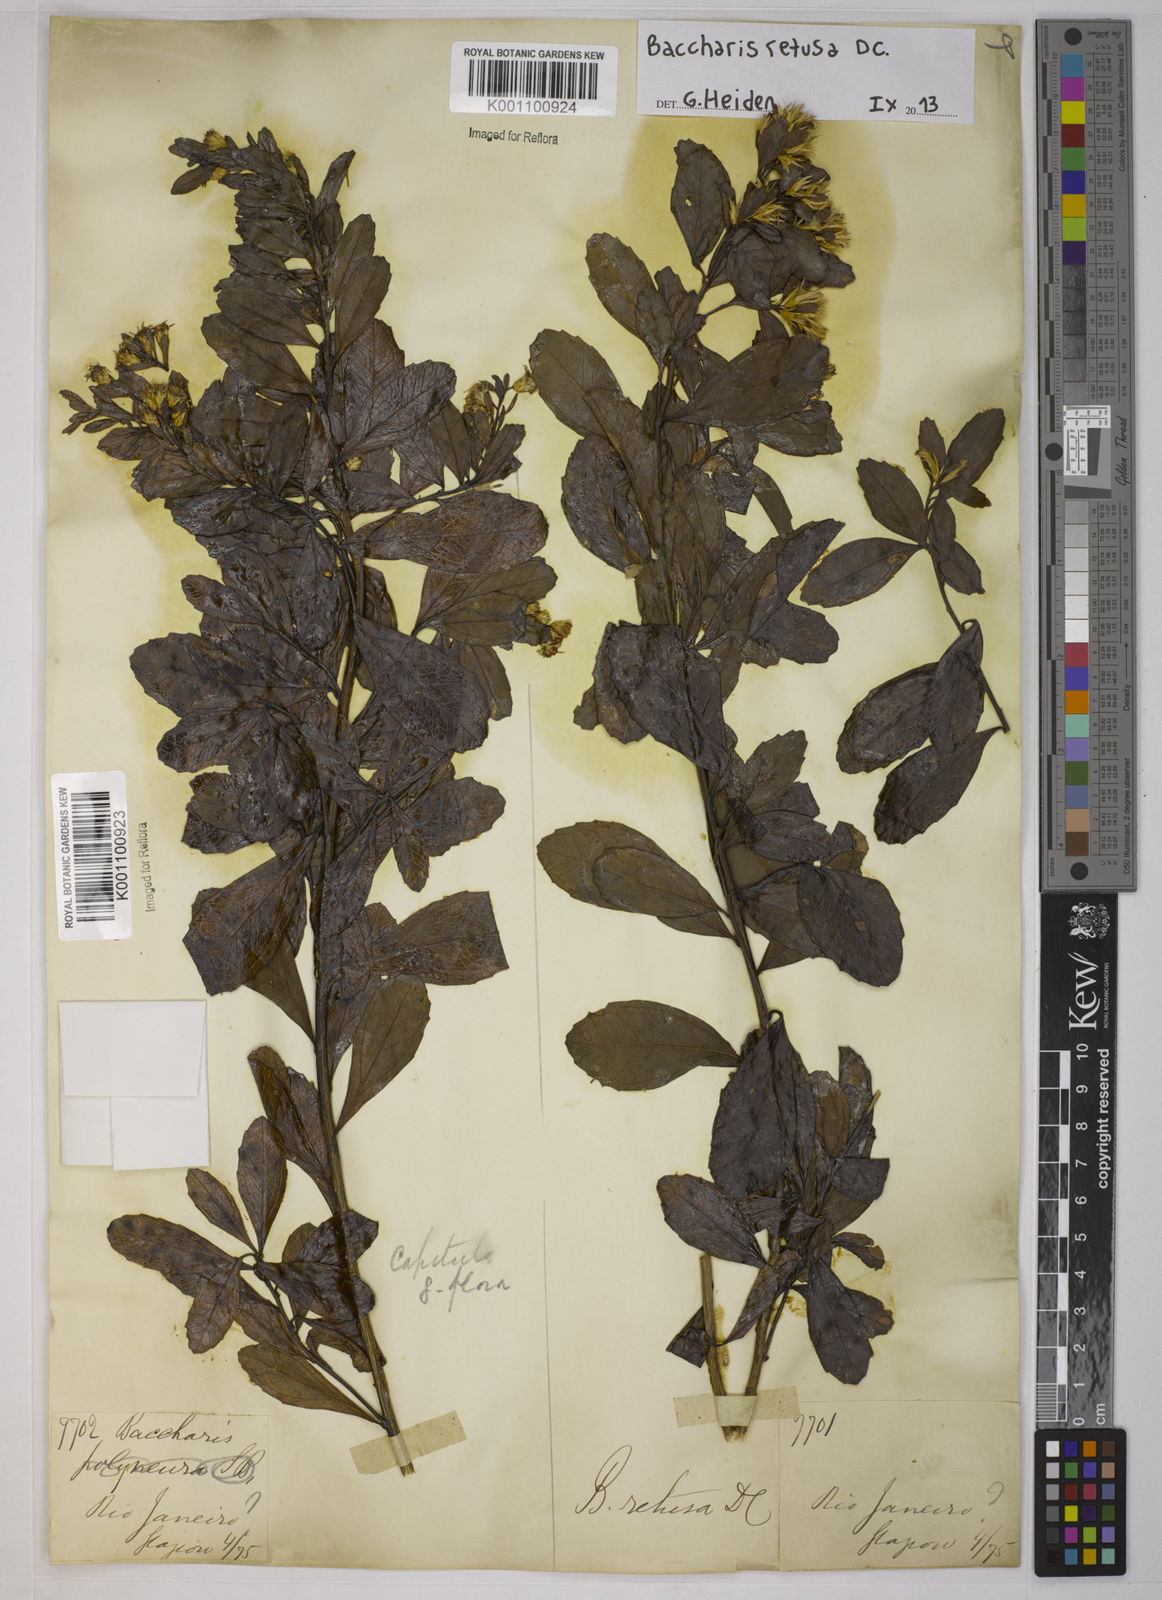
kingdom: Plantae
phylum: Tracheophyta
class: Magnoliopsida
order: Asterales
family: Asteraceae
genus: Baccharis
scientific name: Baccharis retusa
